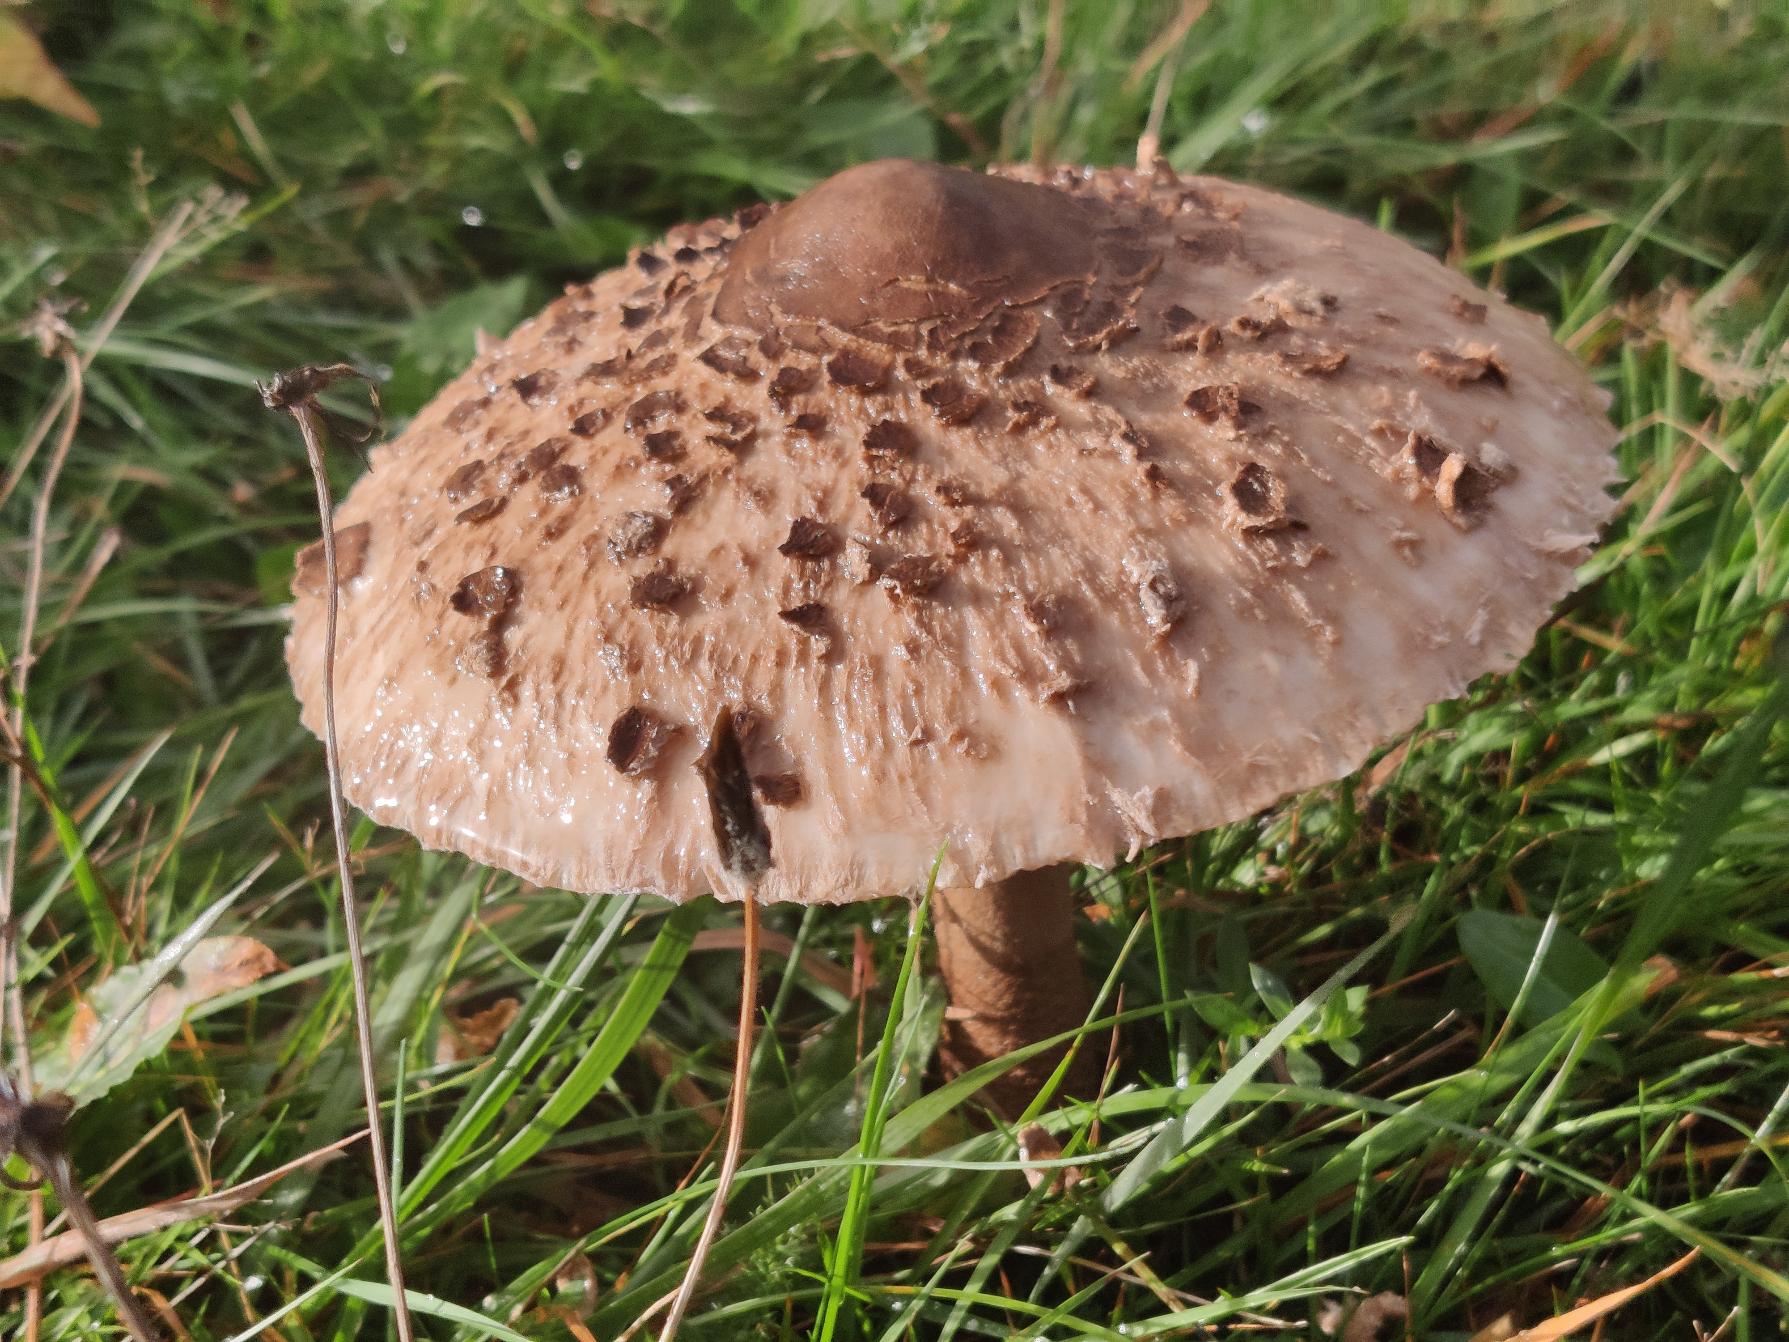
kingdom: Fungi
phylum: Basidiomycota
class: Agaricomycetes
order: Agaricales
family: Agaricaceae
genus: Macrolepiota
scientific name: Macrolepiota procera
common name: Stor kæmpeparasolhat
